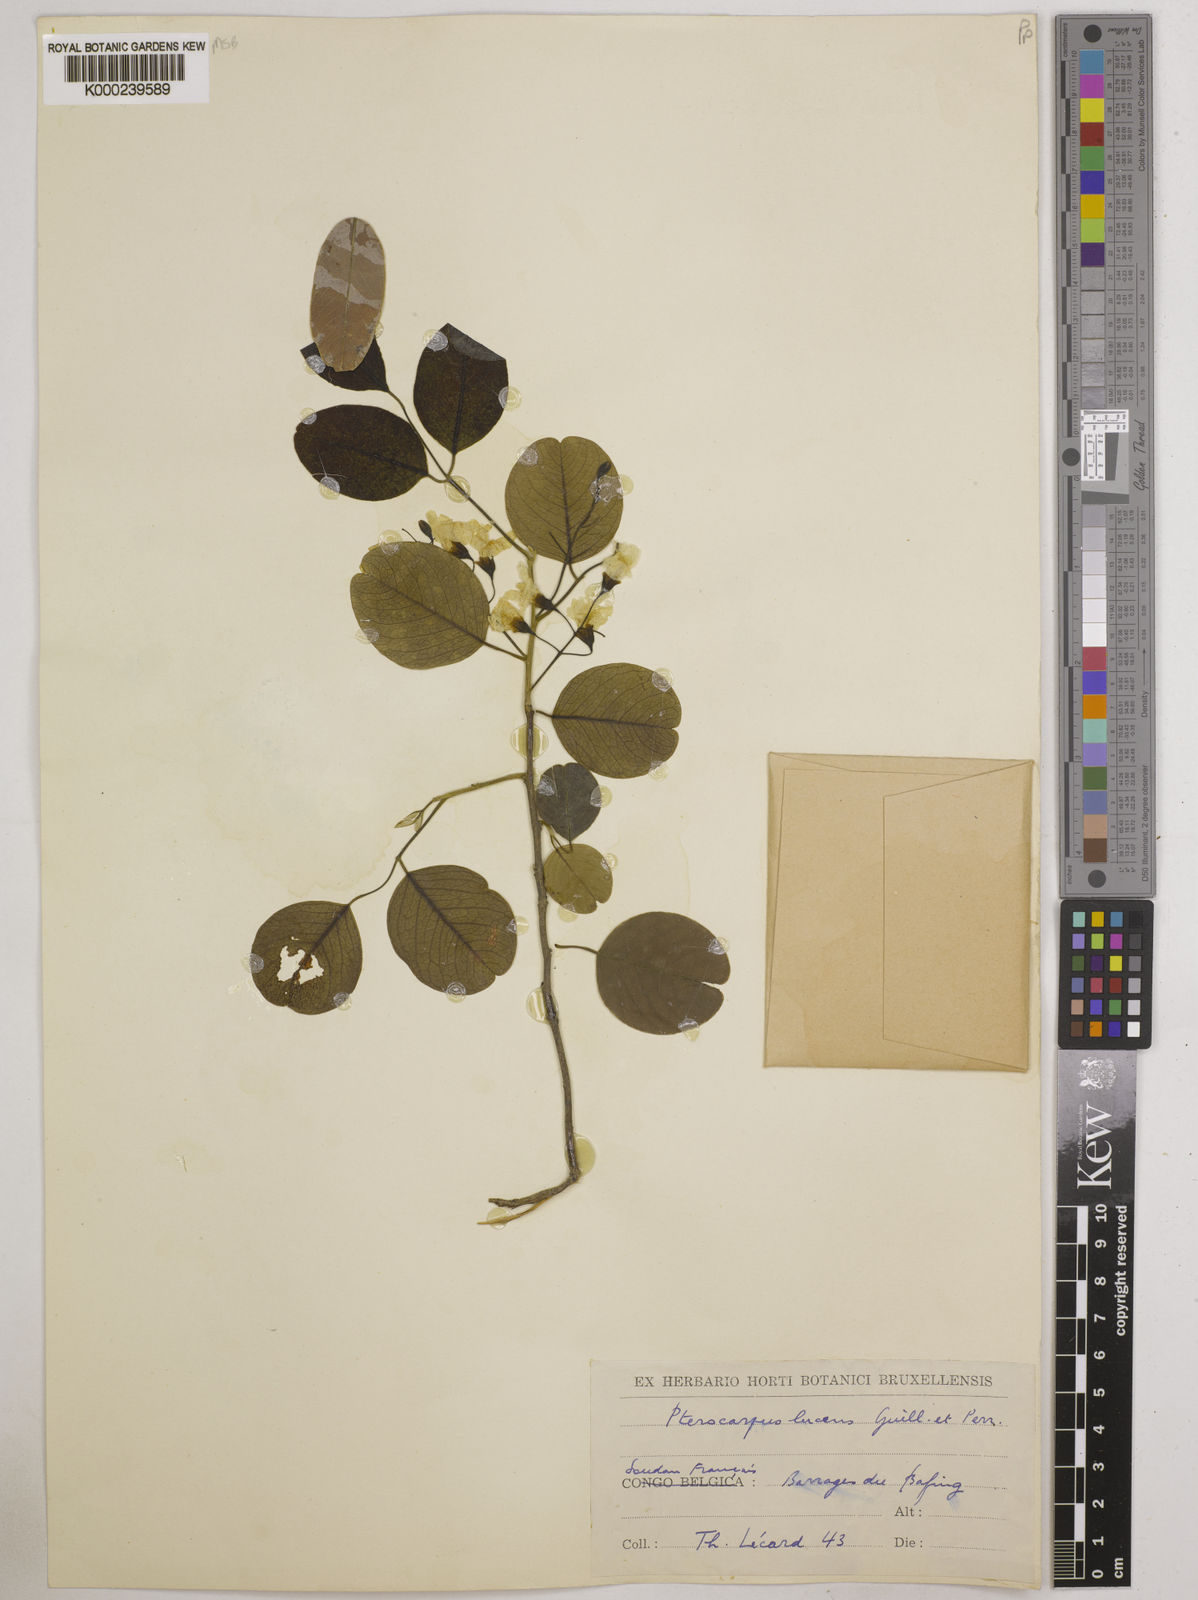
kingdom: Plantae
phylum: Tracheophyta
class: Magnoliopsida
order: Fabales
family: Fabaceae
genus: Pterocarpus
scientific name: Pterocarpus lucens
